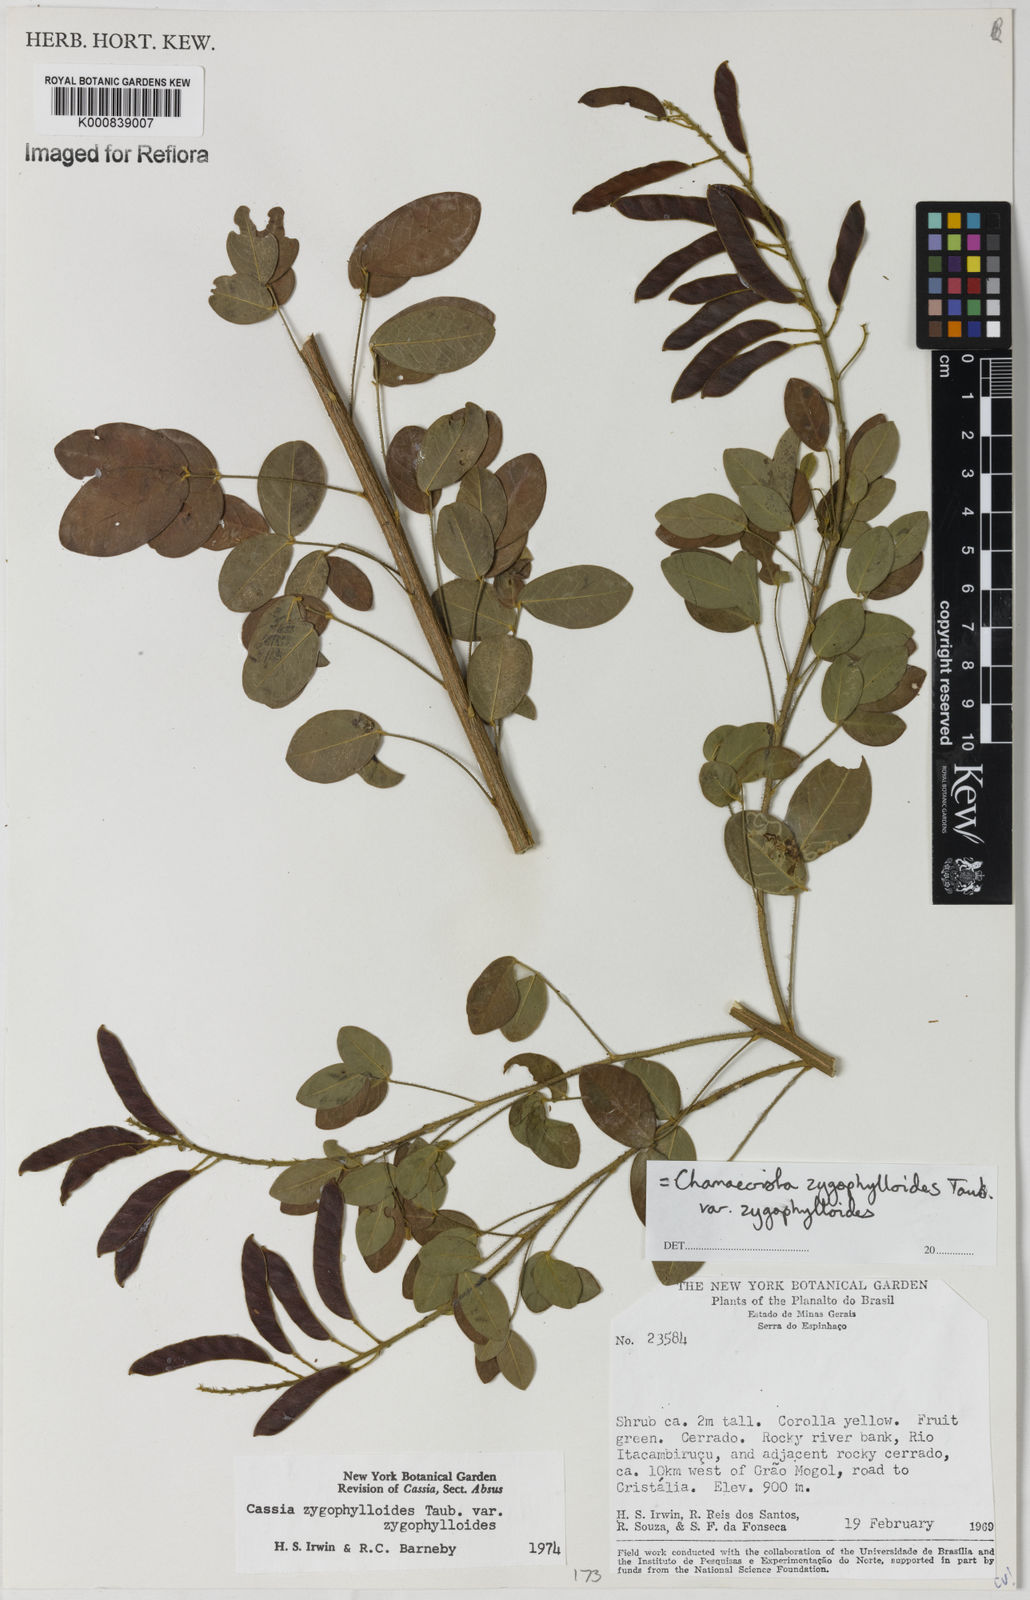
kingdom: Plantae
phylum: Tracheophyta
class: Magnoliopsida
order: Fabales
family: Fabaceae
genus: Chamaecrista
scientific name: Chamaecrista zygophylloides
